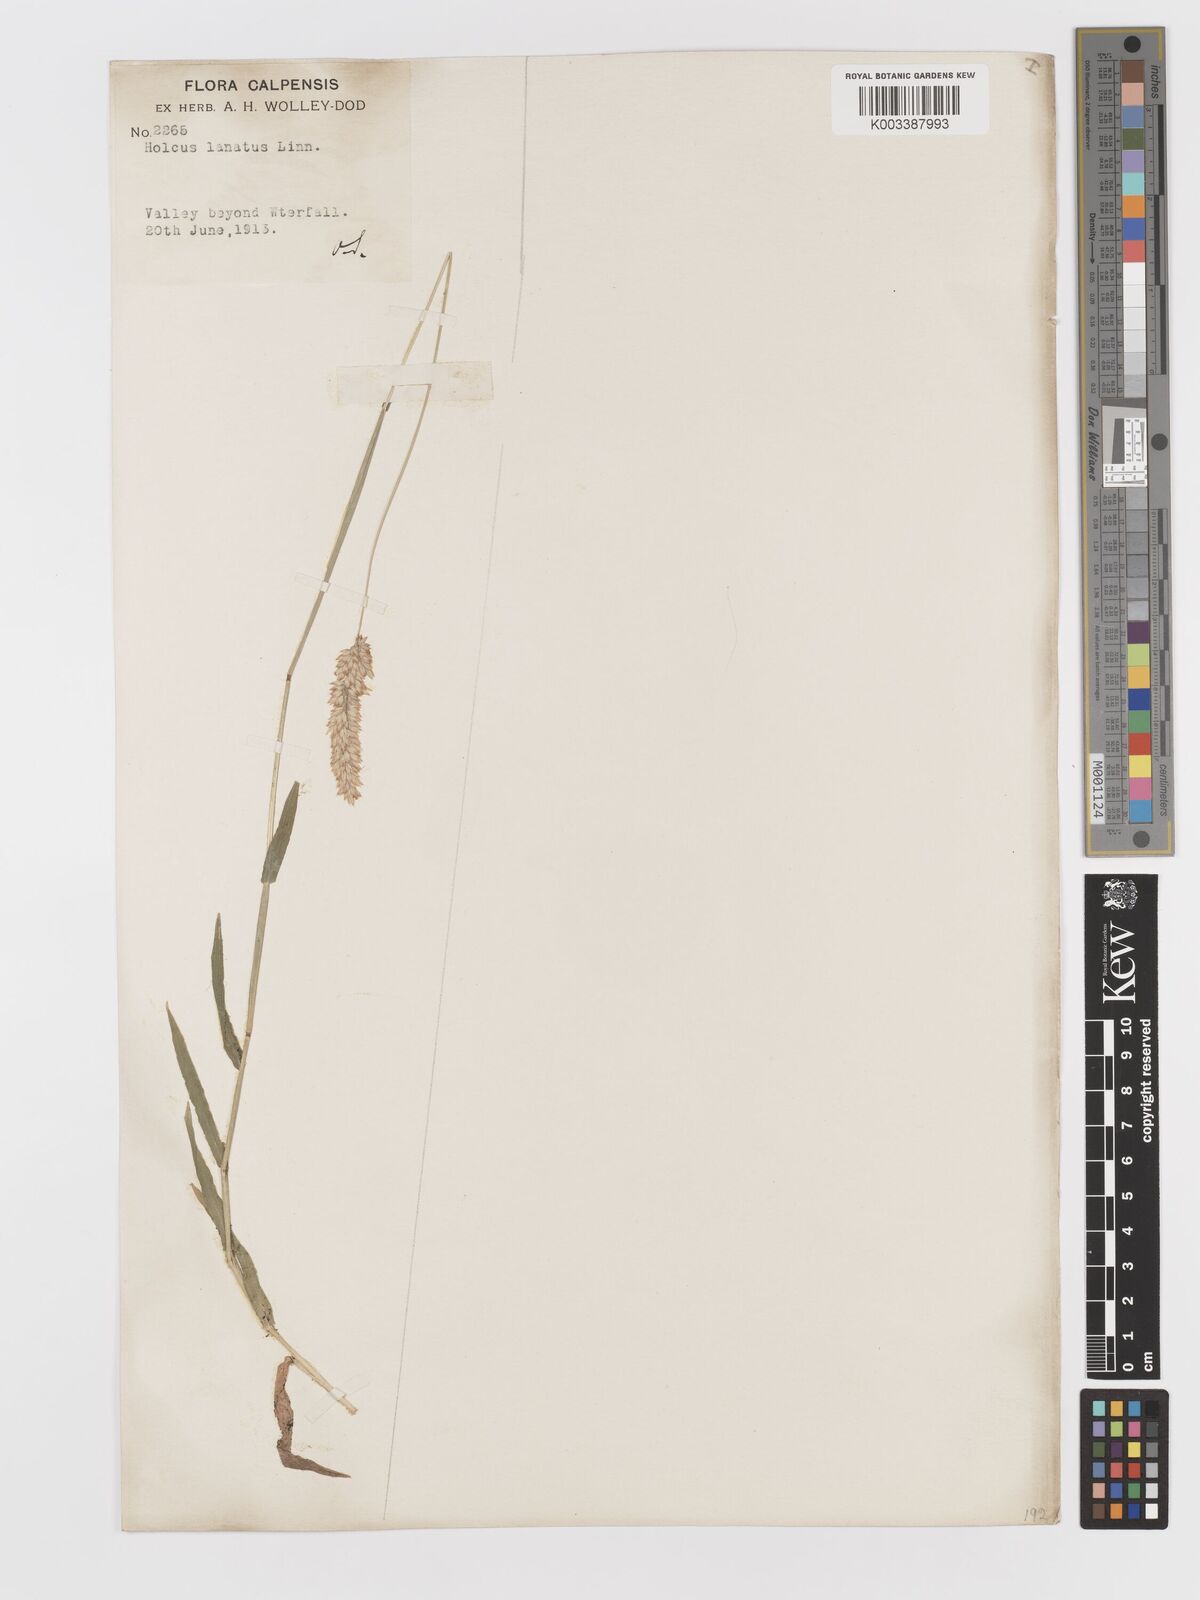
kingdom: Plantae
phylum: Tracheophyta
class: Liliopsida
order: Poales
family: Poaceae
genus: Holcus
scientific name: Holcus lanatus
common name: Yorkshire-fog
